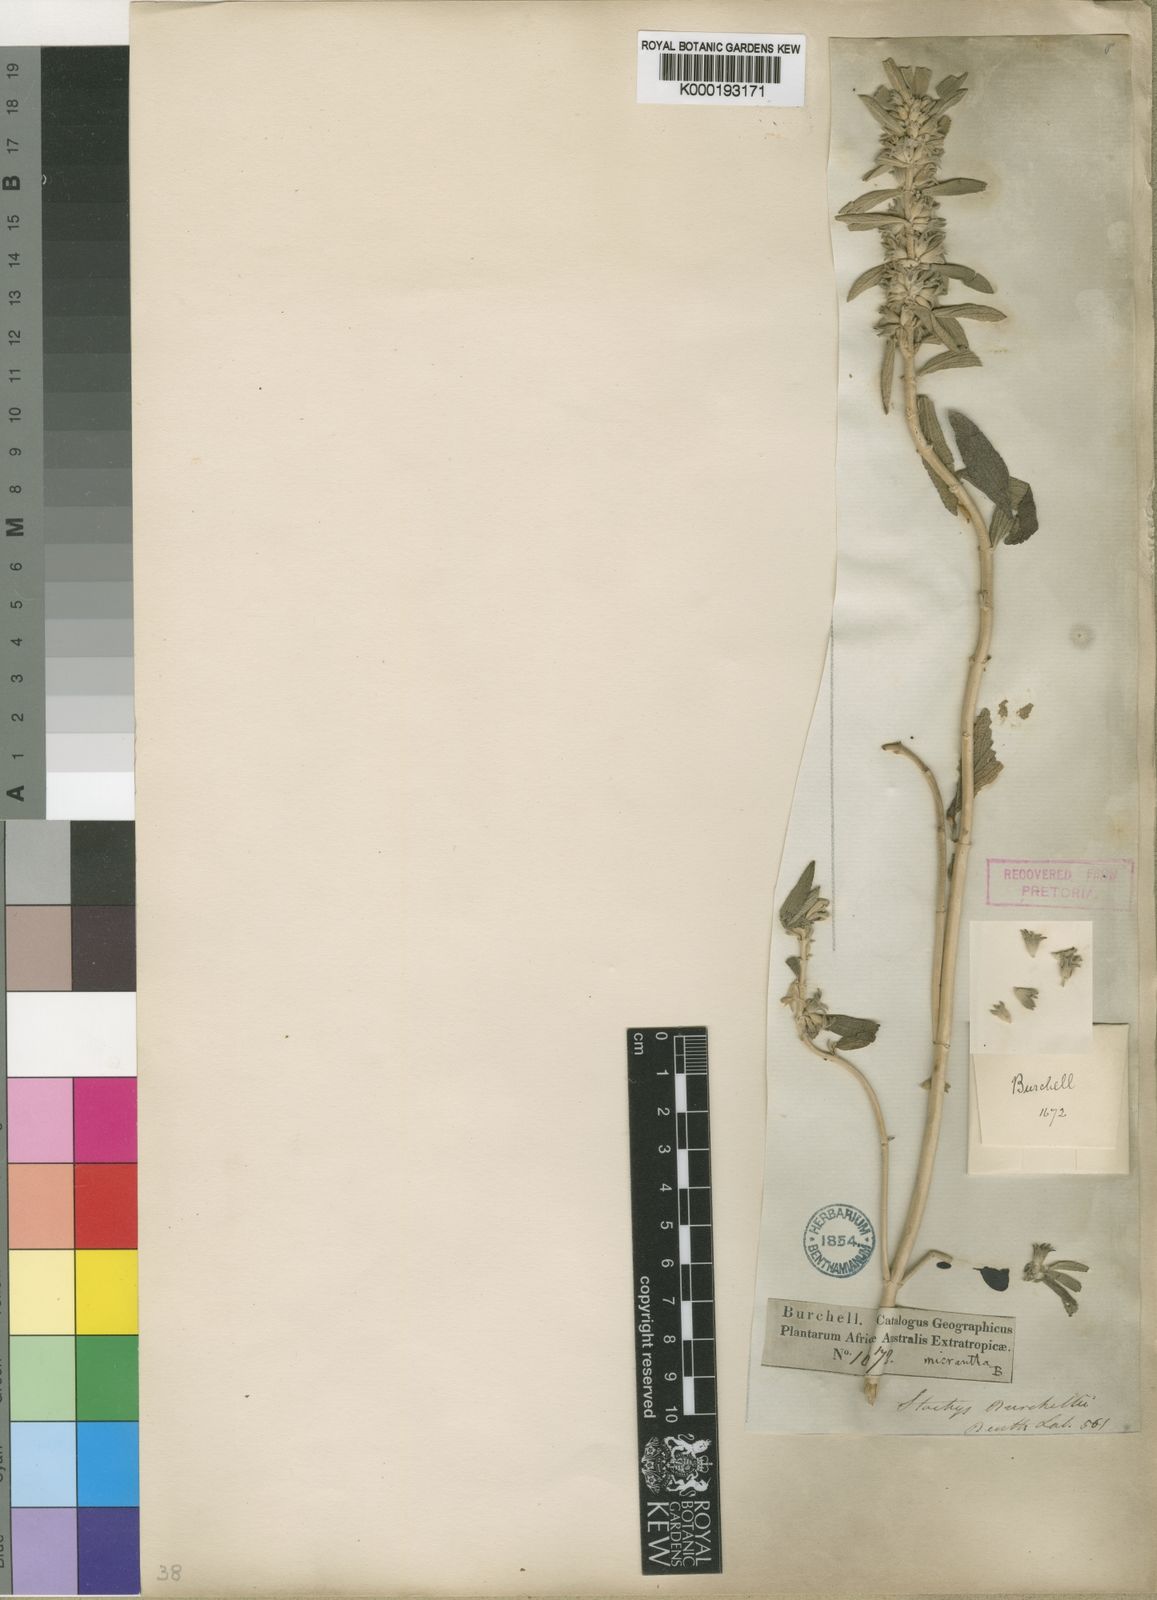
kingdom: Plantae
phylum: Tracheophyta
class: Magnoliopsida
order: Lamiales
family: Lamiaceae
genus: Stachys
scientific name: Stachys burchelliana
